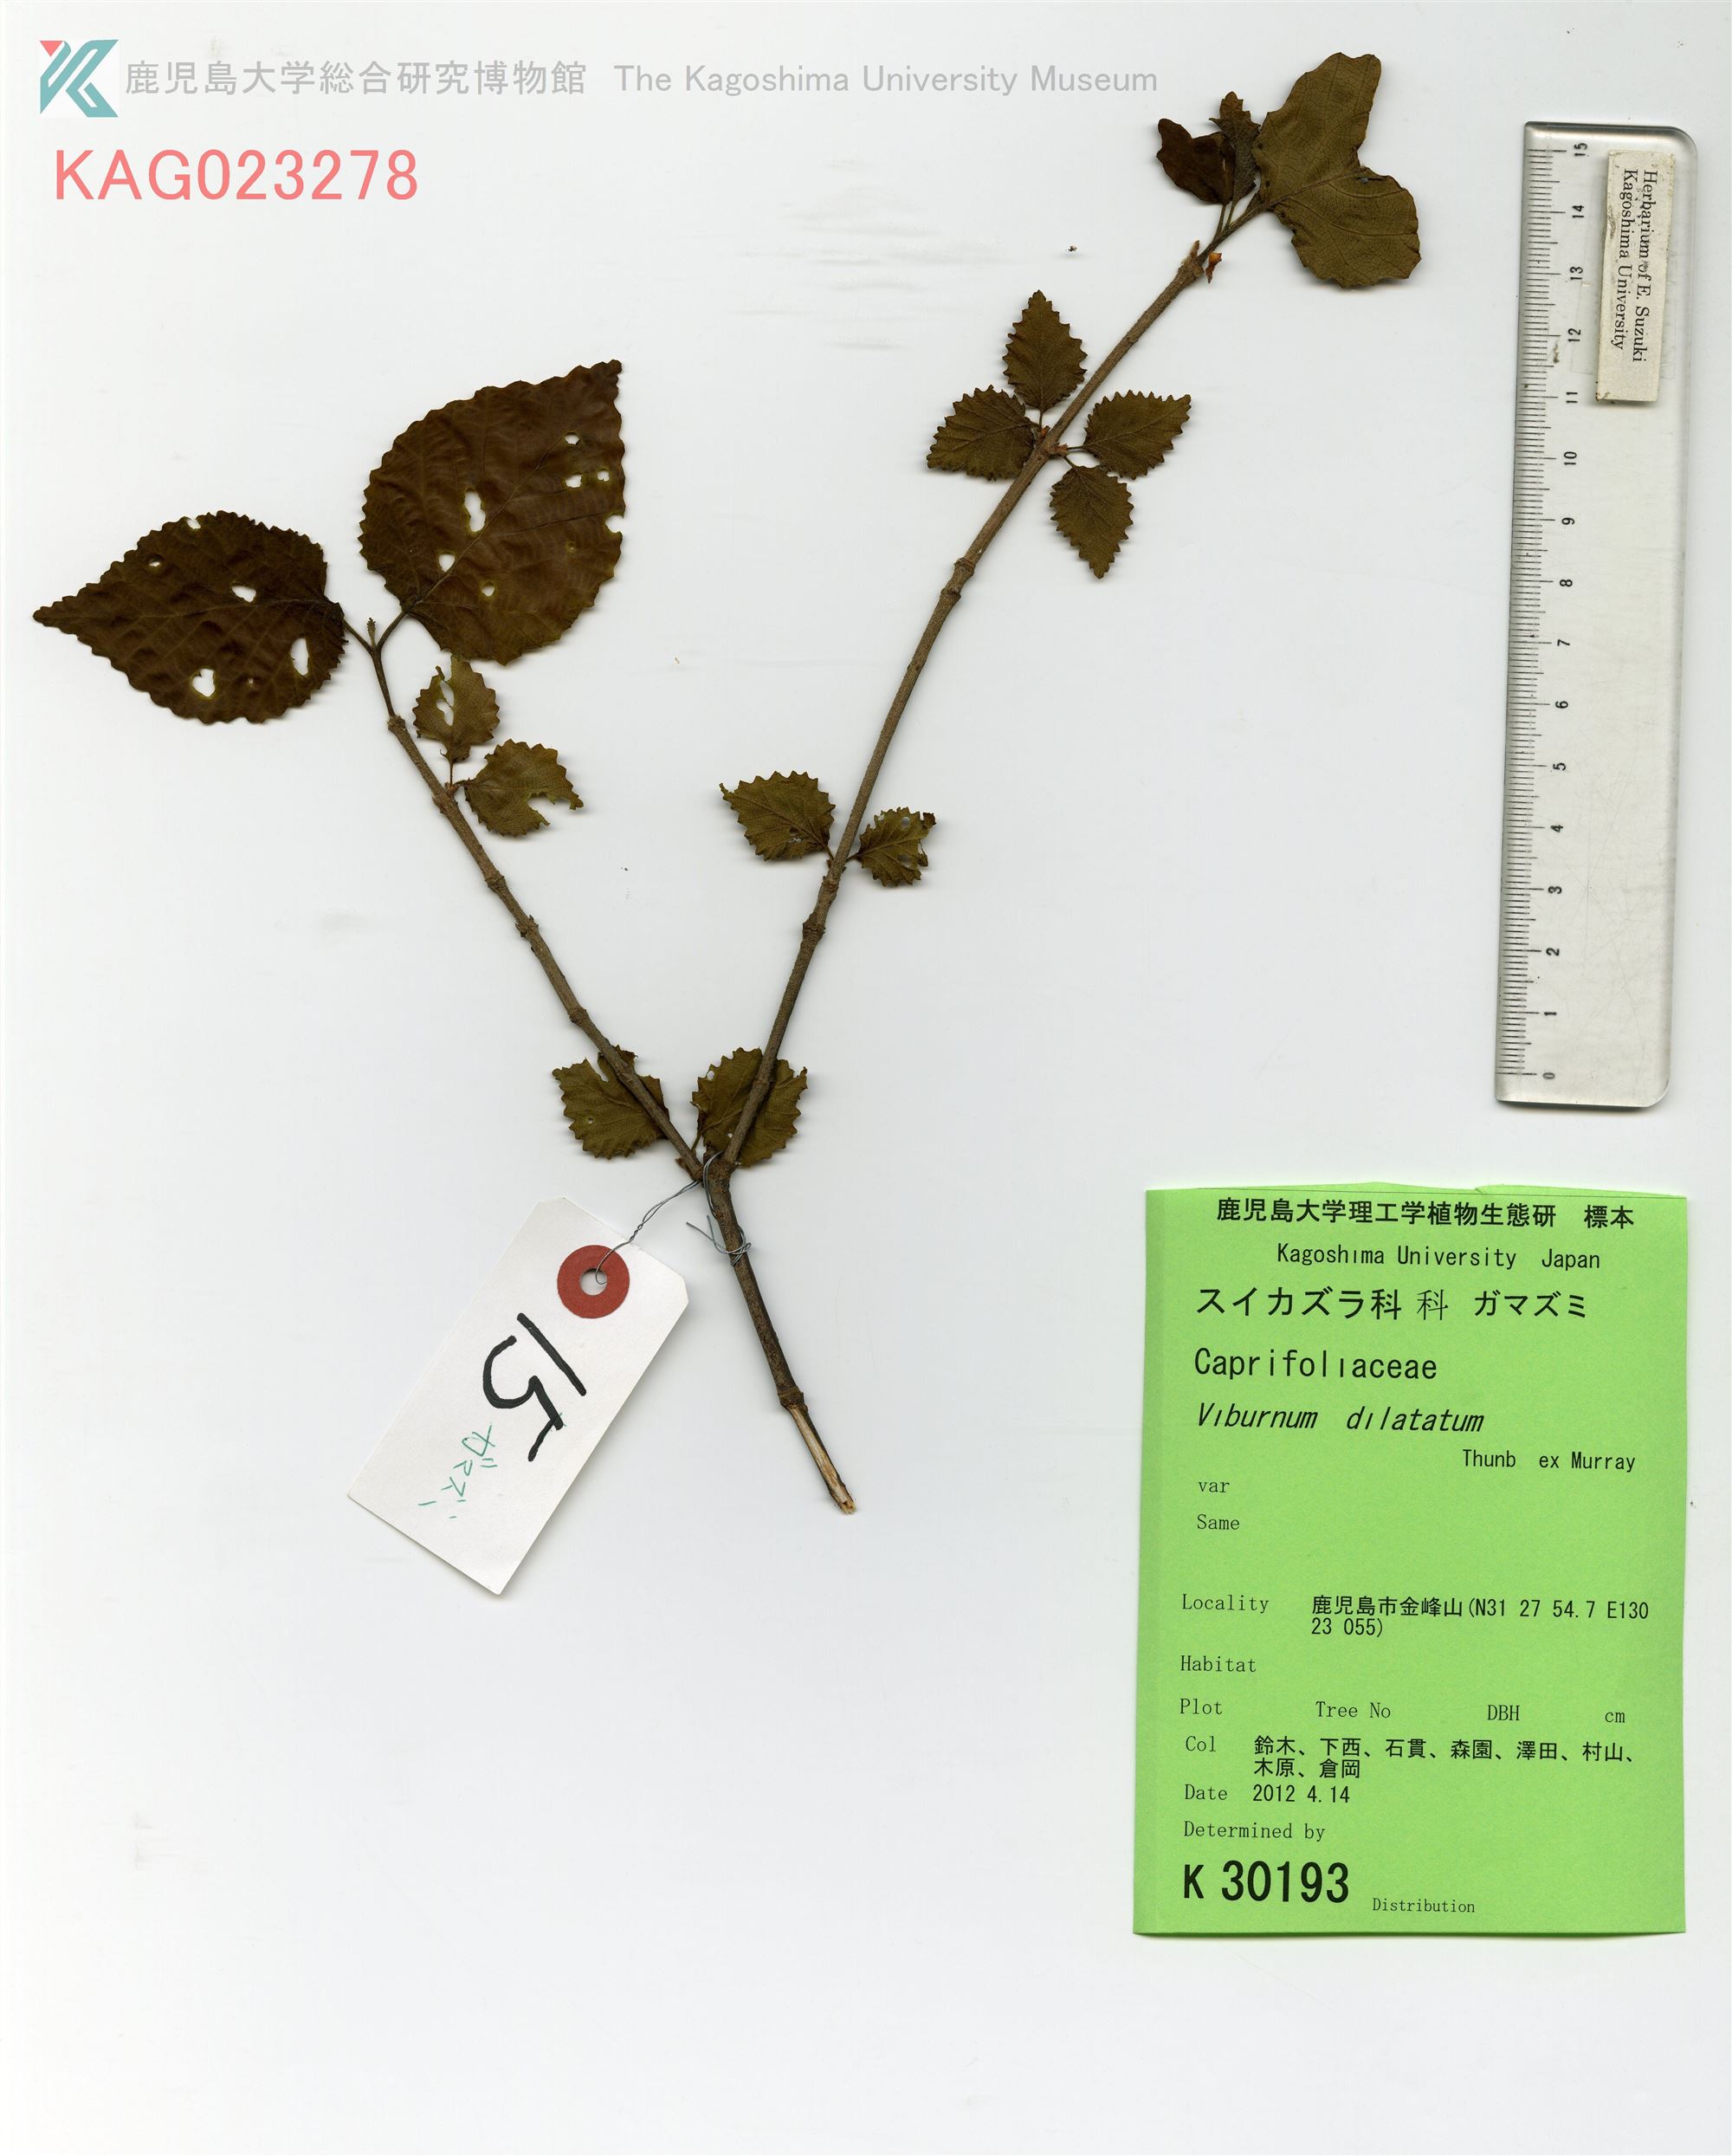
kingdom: Plantae
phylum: Tracheophyta
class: Magnoliopsida
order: Dipsacales
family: Viburnaceae
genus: Viburnum
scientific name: Viburnum dilatatum
